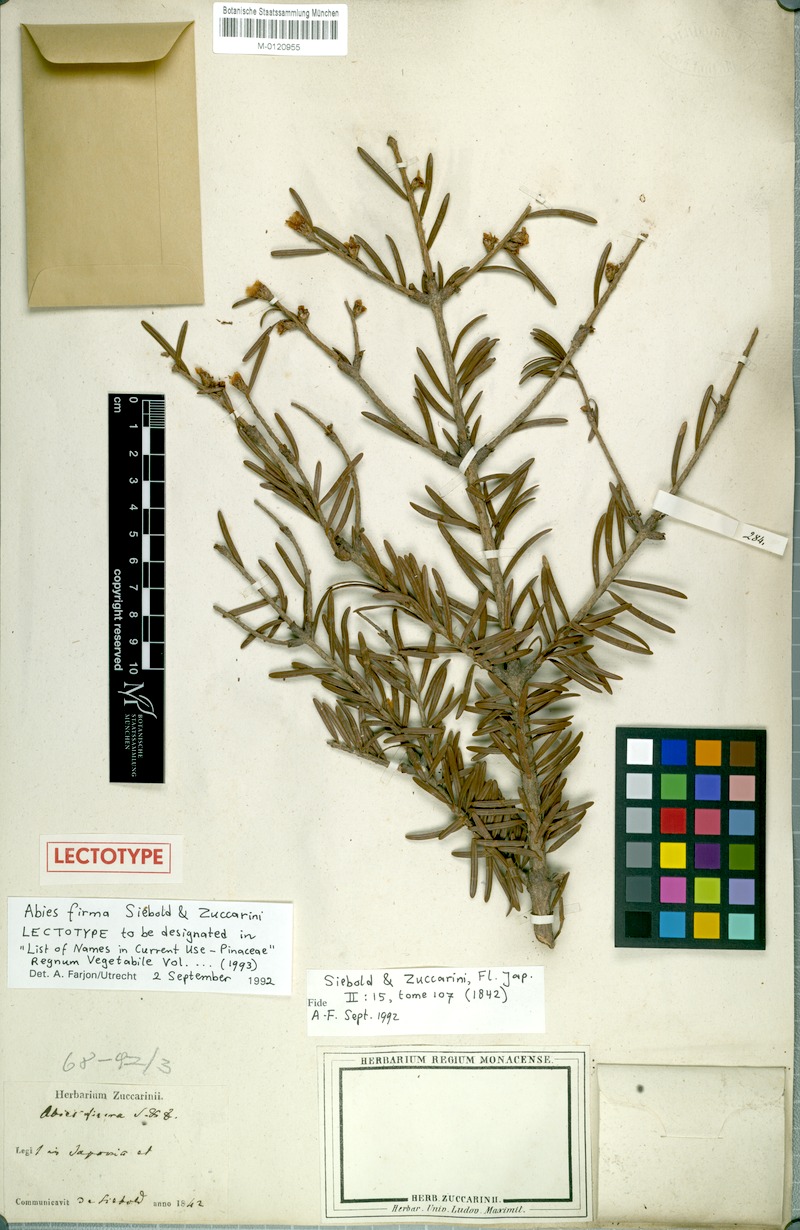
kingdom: Plantae
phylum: Tracheophyta
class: Pinopsida
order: Pinales
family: Pinaceae
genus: Abies
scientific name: Abies firma
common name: Momi fir
